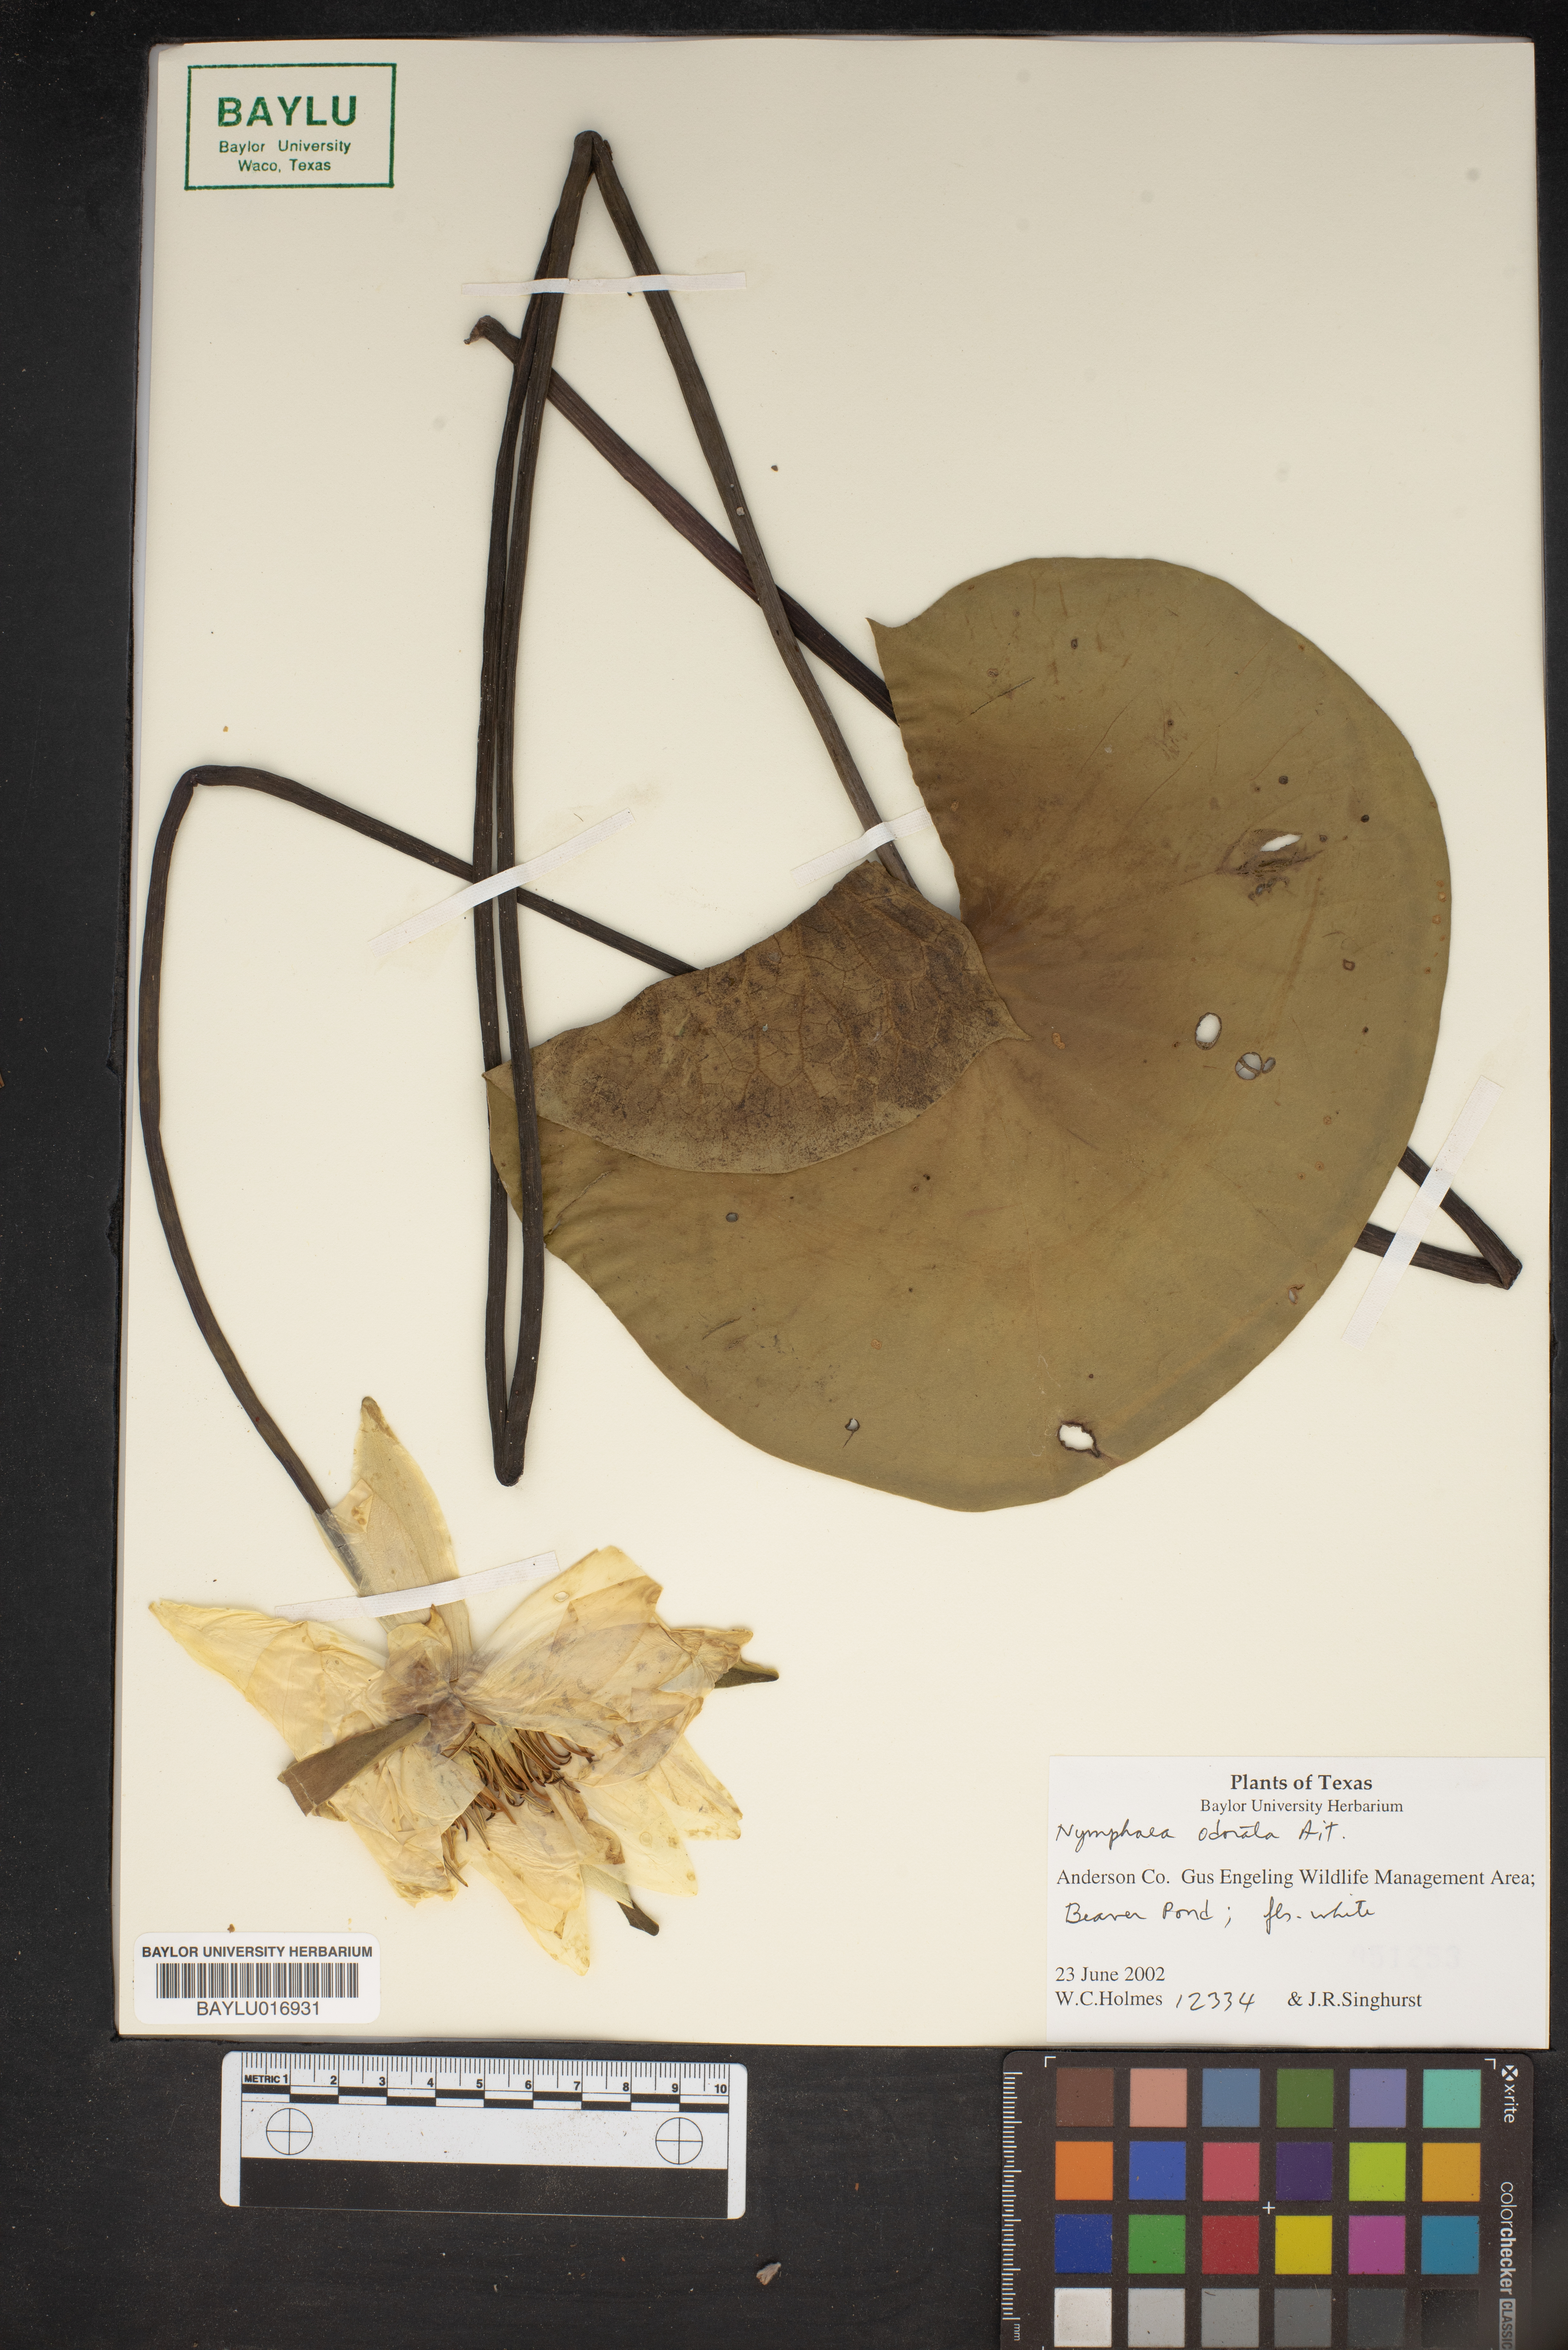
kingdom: Plantae
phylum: Tracheophyta
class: Magnoliopsida
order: Nymphaeales
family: Nymphaeaceae
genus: Nymphaea
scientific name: Nymphaea odorata
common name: Fragrant water-lily
